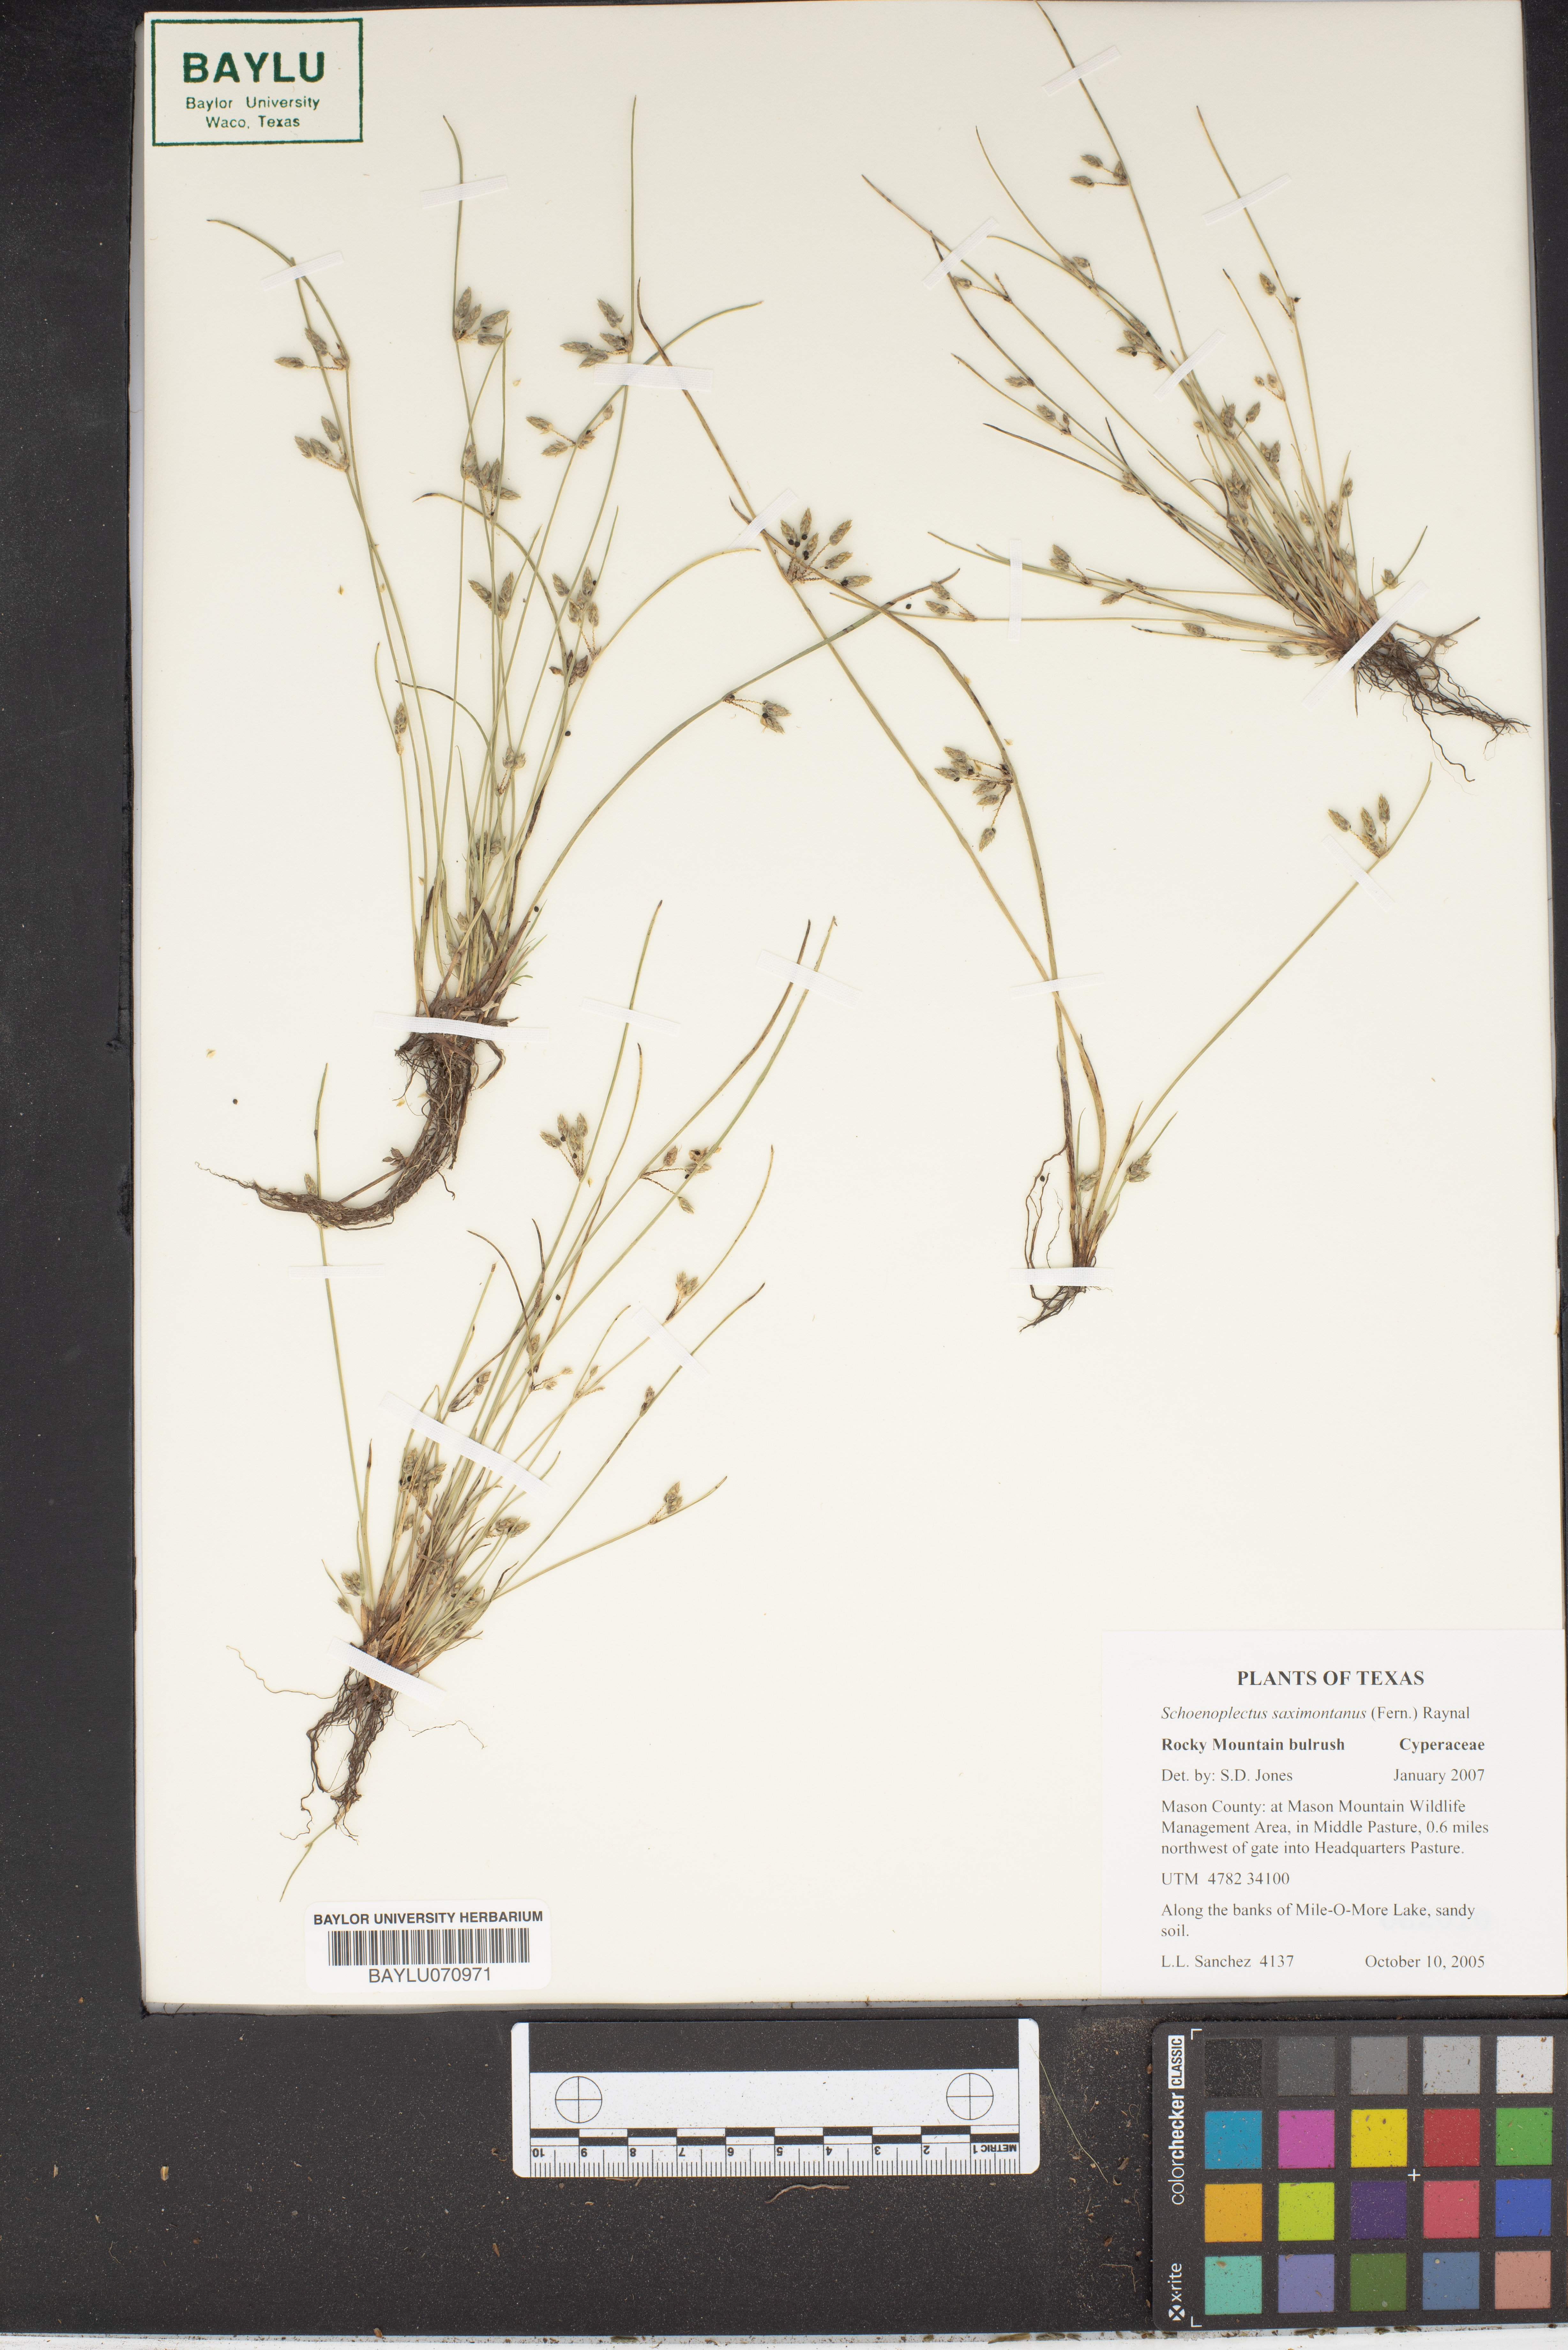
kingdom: Plantae
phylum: Tracheophyta
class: Liliopsida
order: Poales
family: Cyperaceae
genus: Schoenoplectiella
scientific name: Schoenoplectiella saximontana
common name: Rocky mountain clubrush
